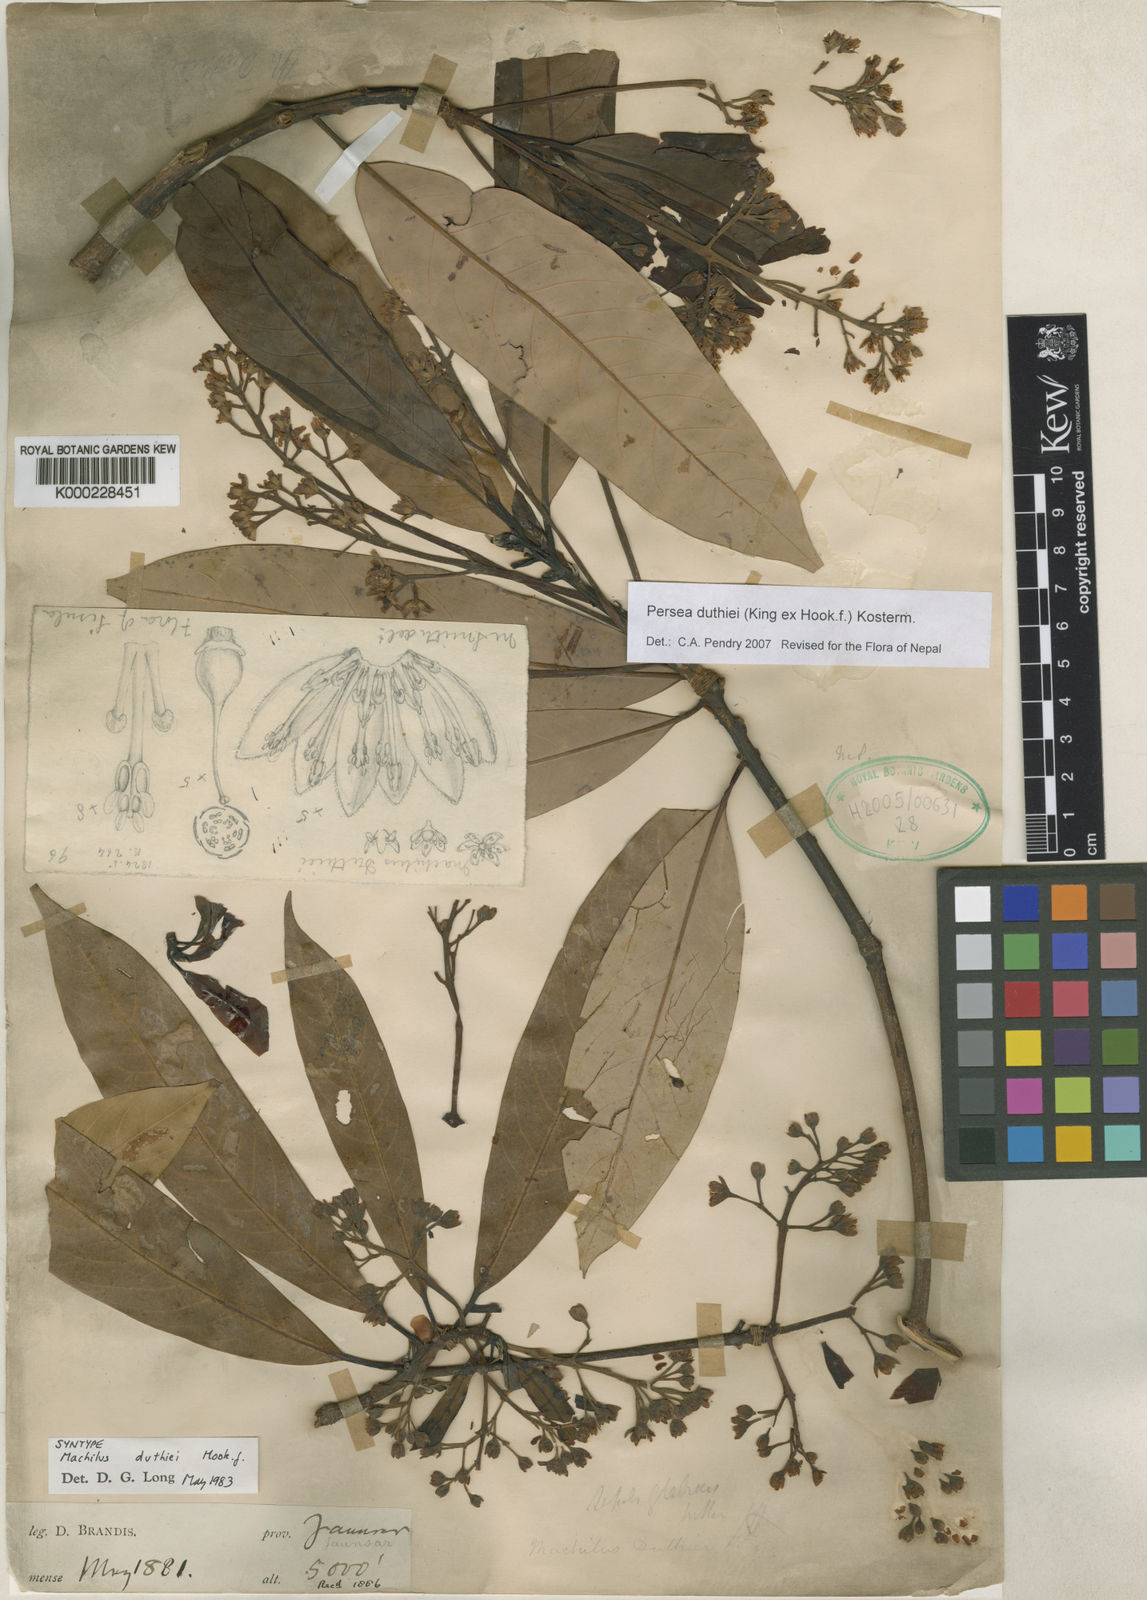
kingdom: Plantae
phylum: Tracheophyta
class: Magnoliopsida
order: Laurales
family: Lauraceae
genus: Machilus
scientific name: Machilus duthiei
